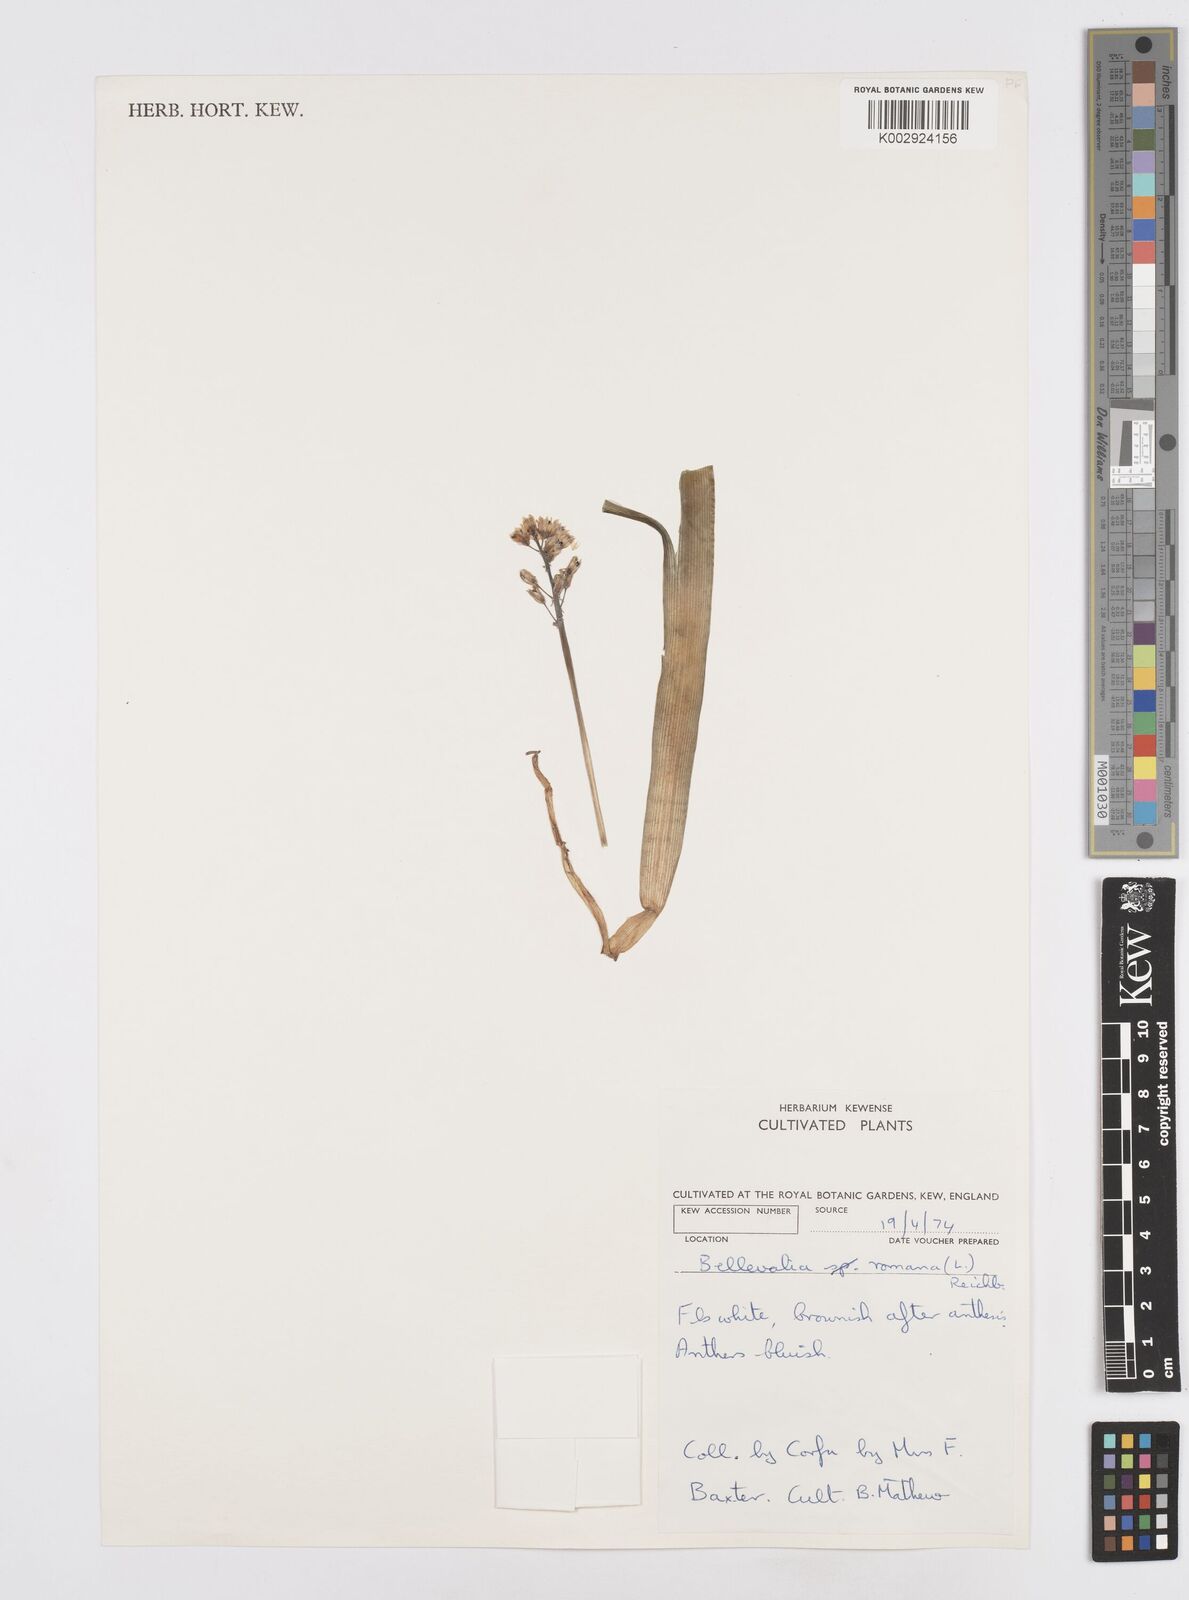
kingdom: Plantae
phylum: Tracheophyta
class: Liliopsida
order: Asparagales
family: Asparagaceae
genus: Bellevalia
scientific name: Bellevalia
